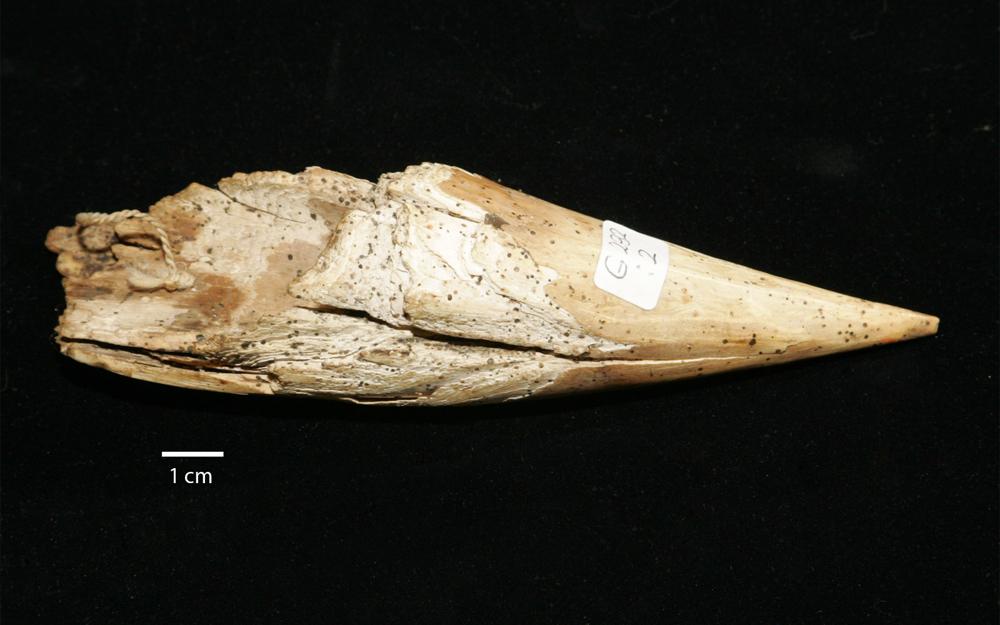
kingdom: Animalia
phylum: Chordata
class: Mammalia
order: Proboscidea
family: Elephantidae
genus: Mammuthus
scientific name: Mammuthus primigenius
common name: Wooly mammoth
